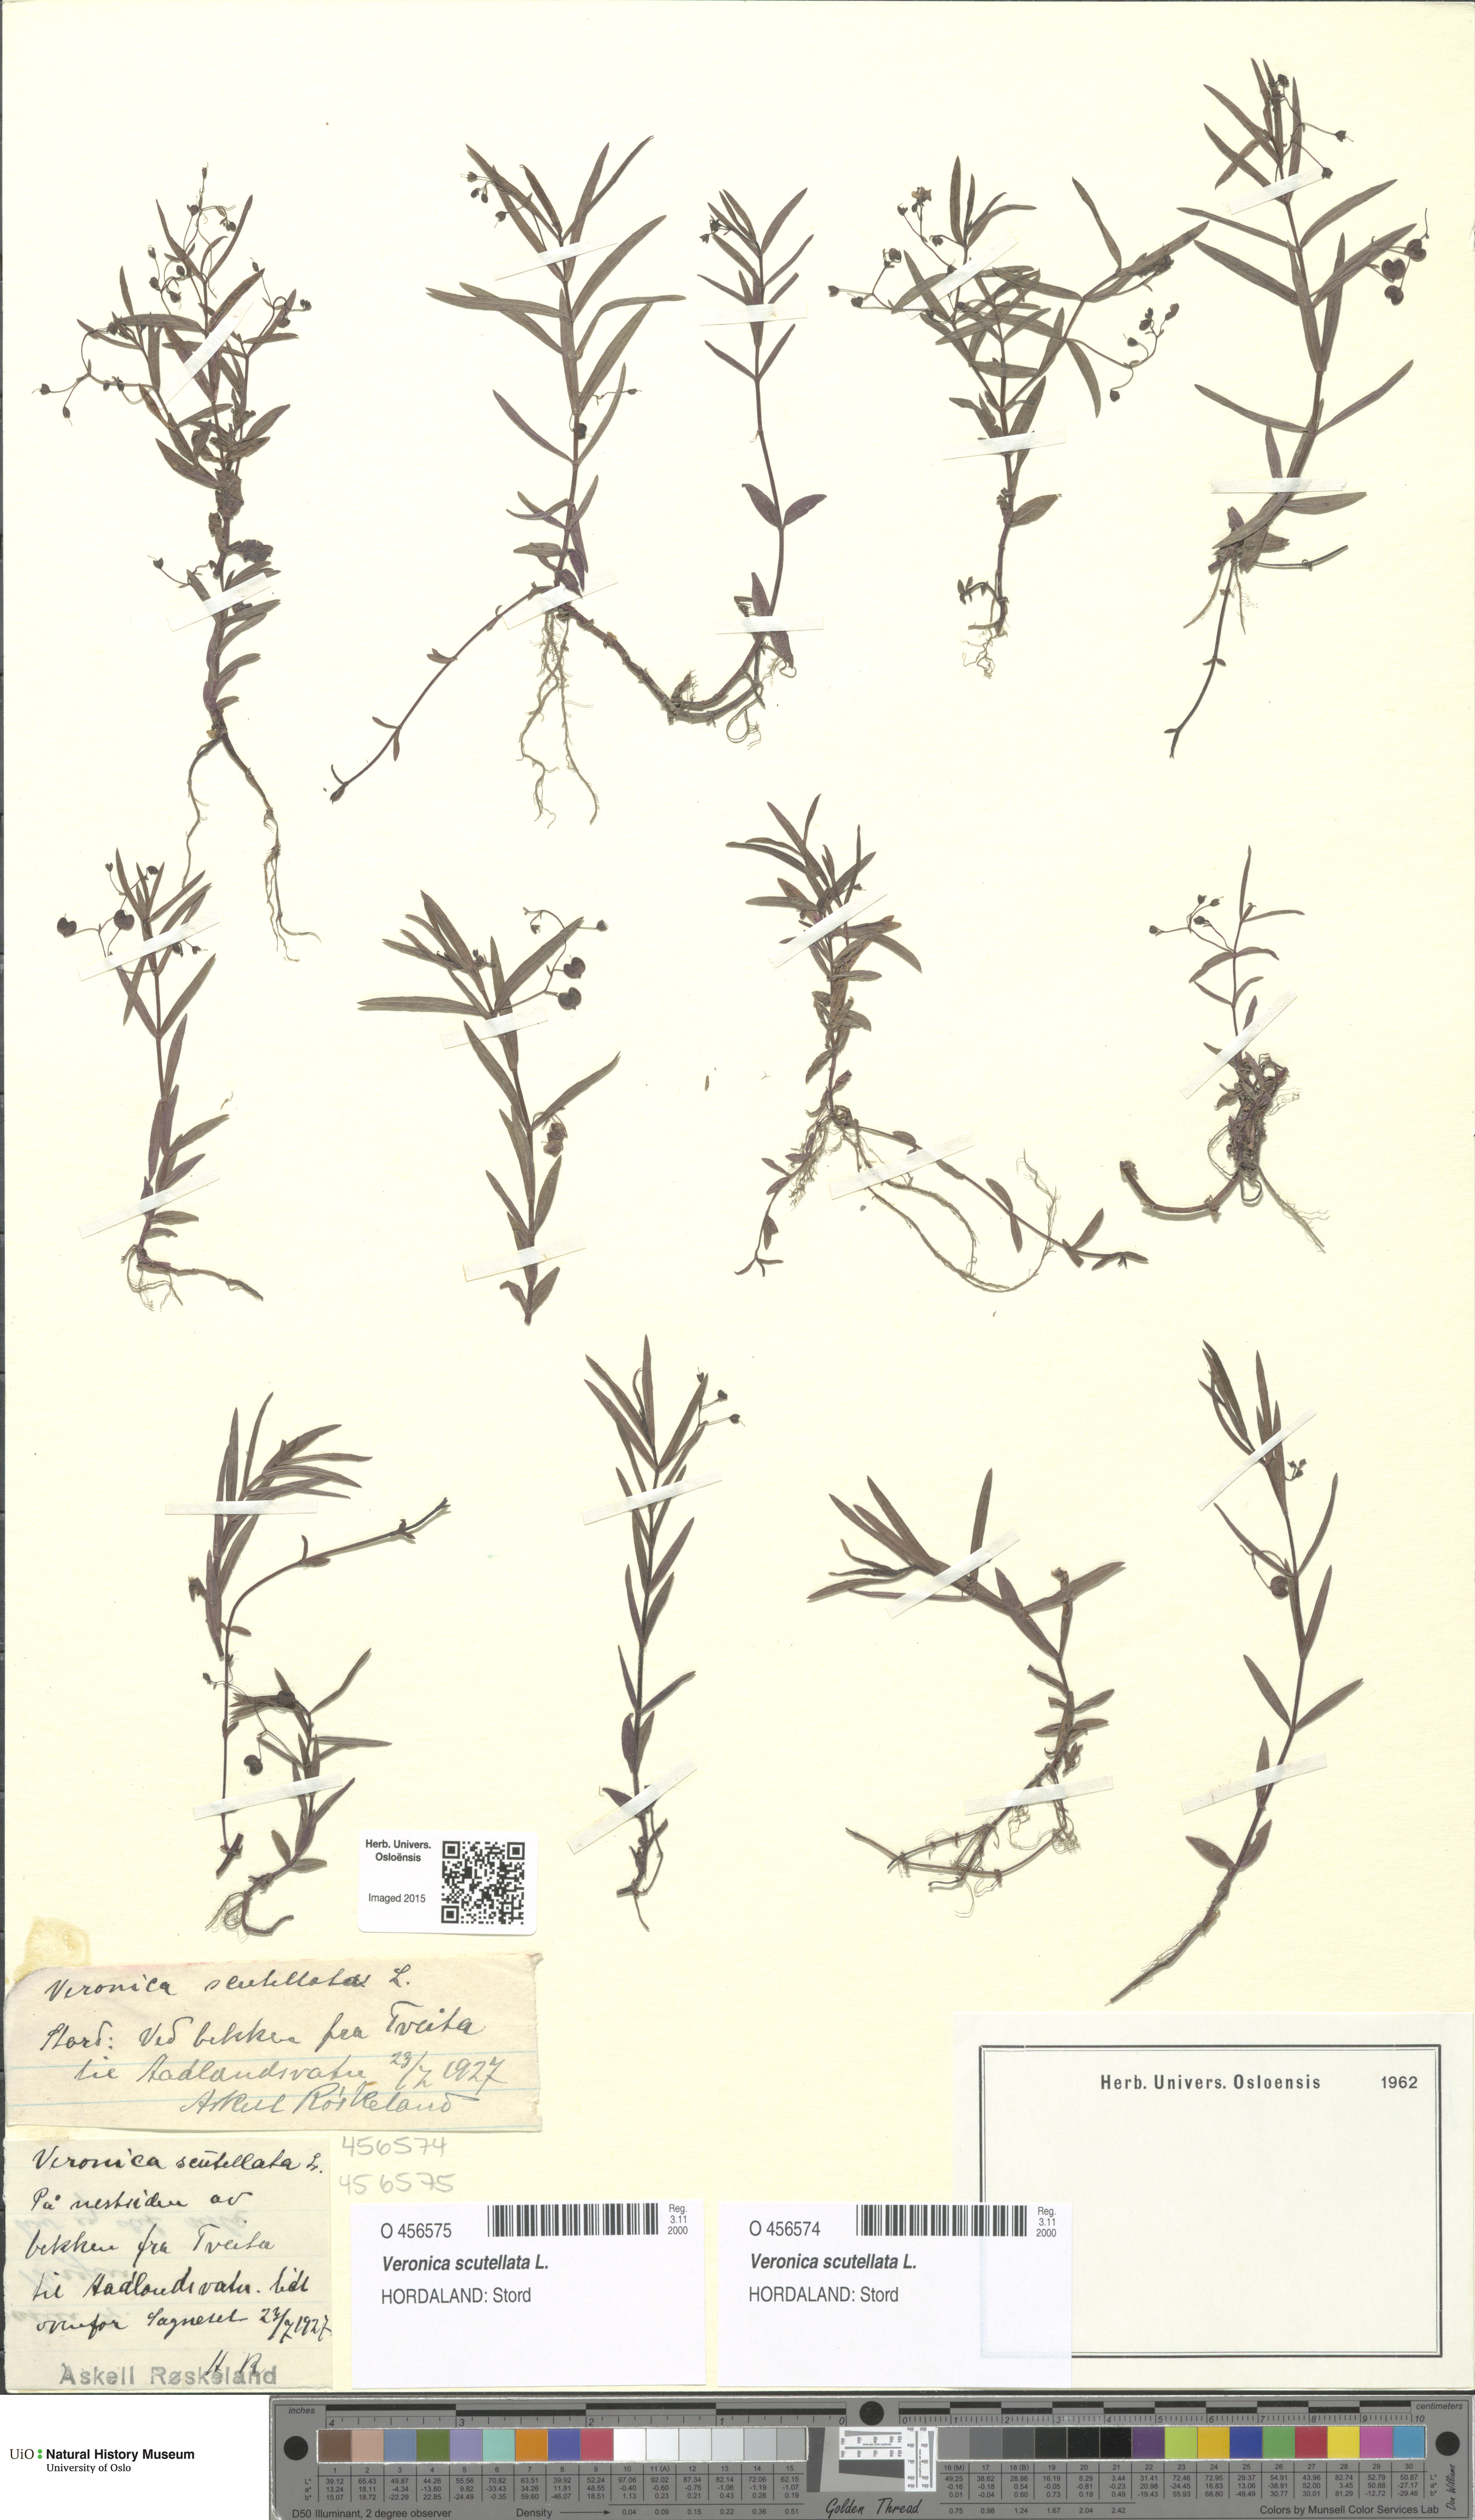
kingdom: Plantae
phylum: Tracheophyta
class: Magnoliopsida
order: Lamiales
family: Plantaginaceae
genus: Veronica
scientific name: Veronica scutellata
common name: Marsh speedwell
